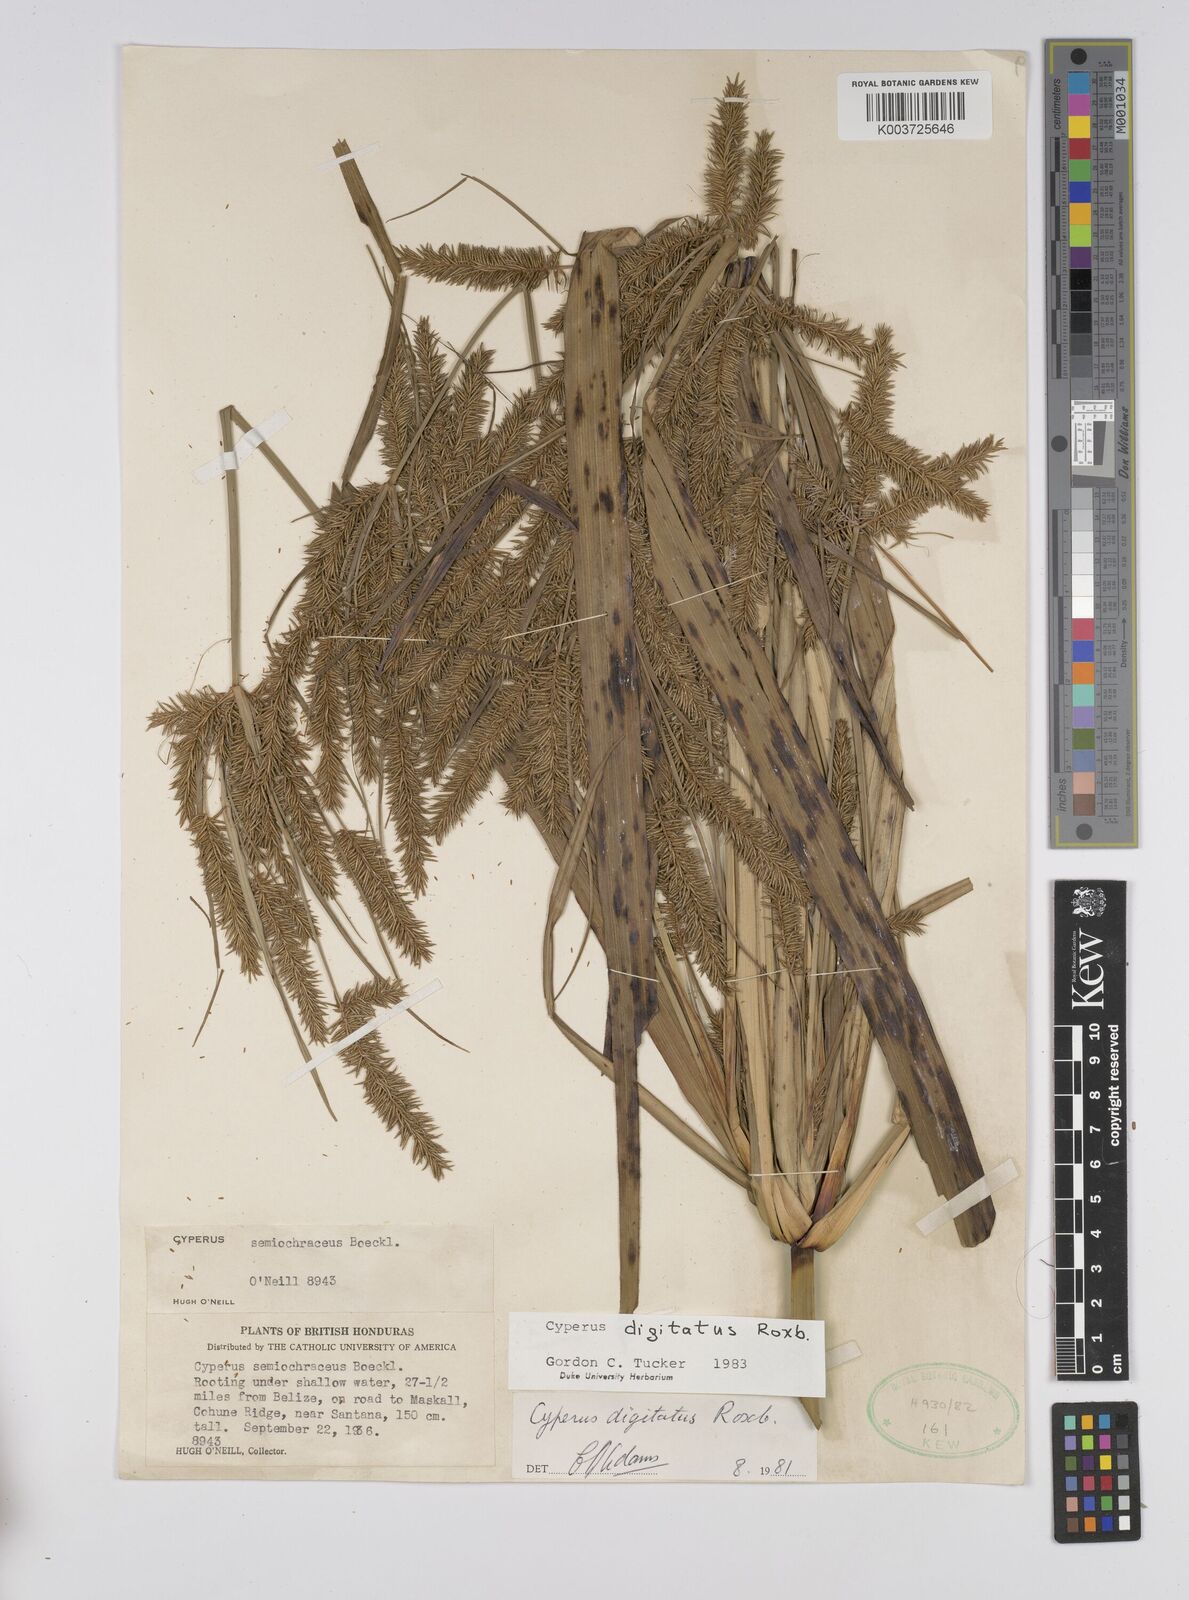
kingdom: Plantae
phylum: Tracheophyta
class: Liliopsida
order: Poales
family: Cyperaceae
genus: Cyperus
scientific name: Cyperus digitatus
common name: Finger flatsedge
